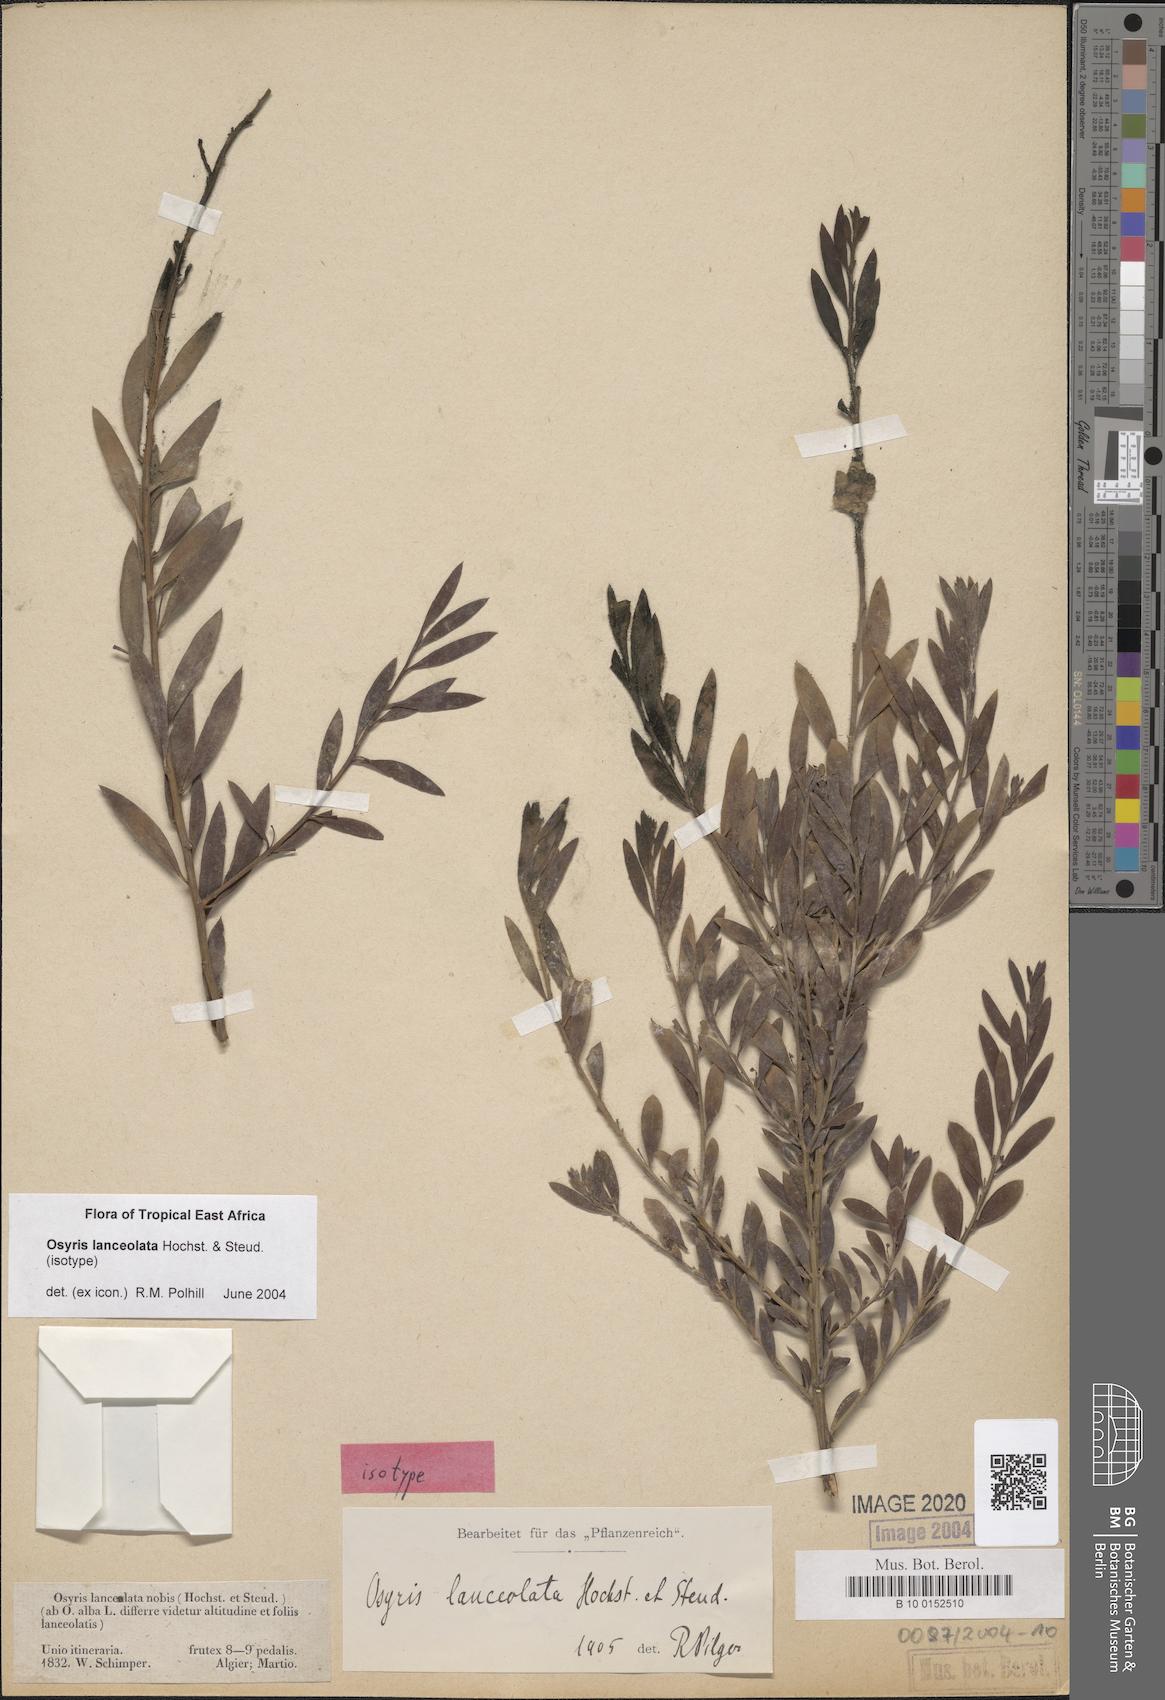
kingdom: Plantae
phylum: Tracheophyta
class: Magnoliopsida
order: Santalales
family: Santalaceae
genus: Osyris
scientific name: Osyris lanceolata
